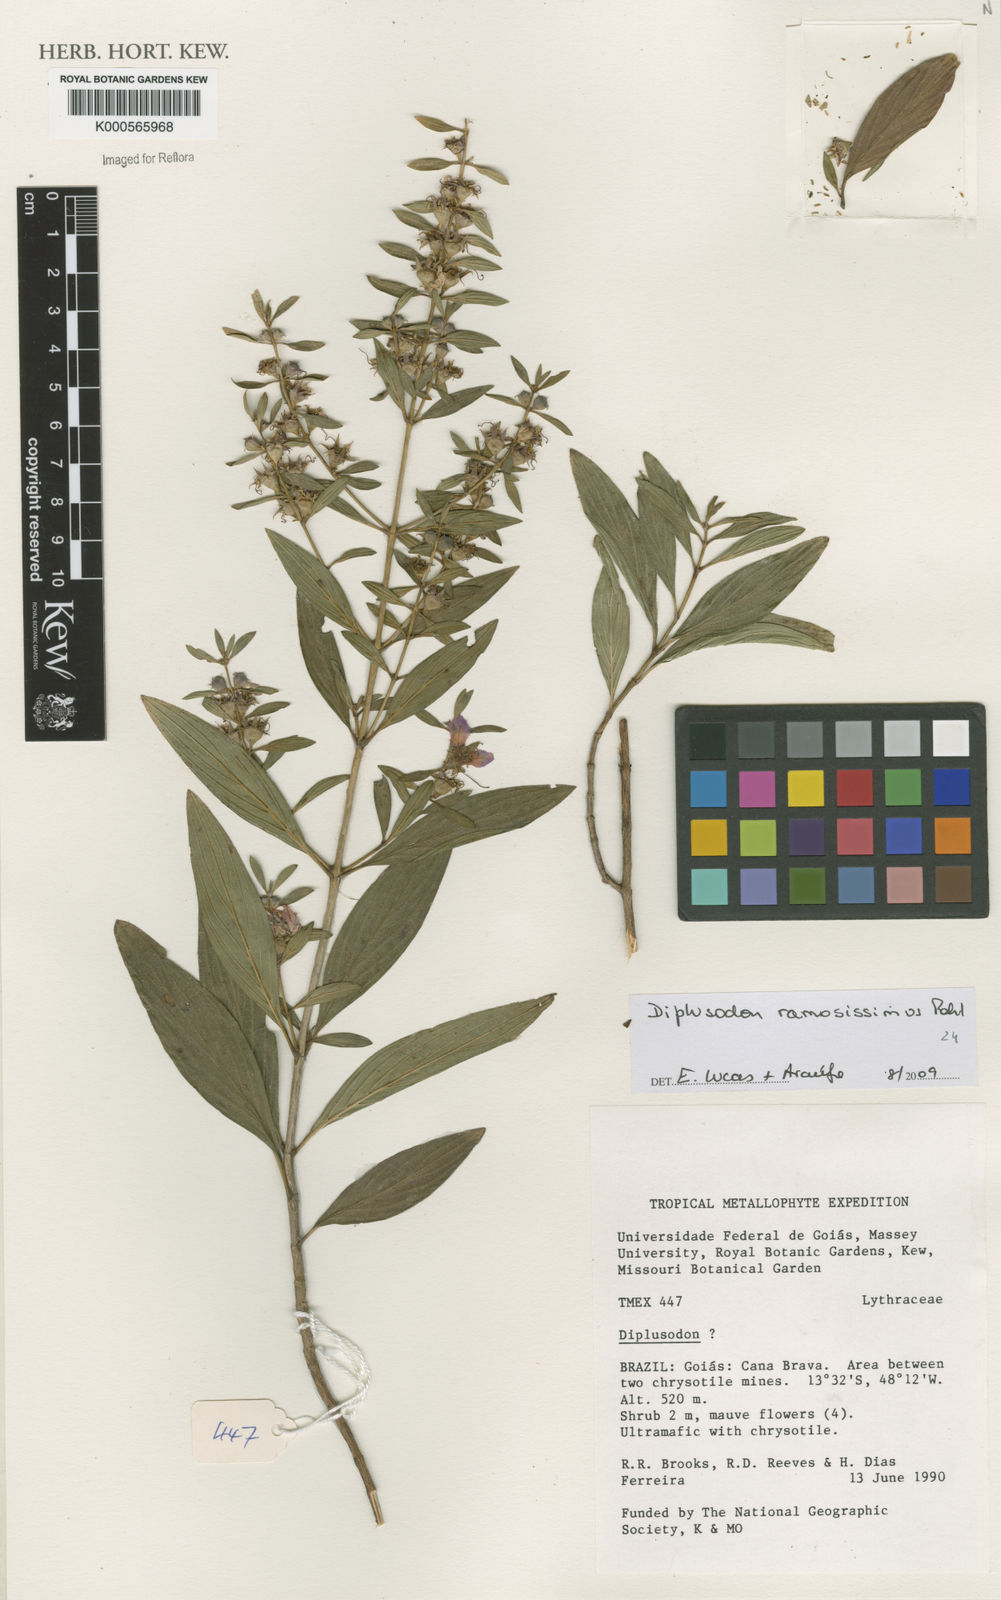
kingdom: Plantae
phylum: Tracheophyta
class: Magnoliopsida
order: Myrtales
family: Lythraceae
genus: Diplusodon
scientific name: Diplusodon ramosissimus
